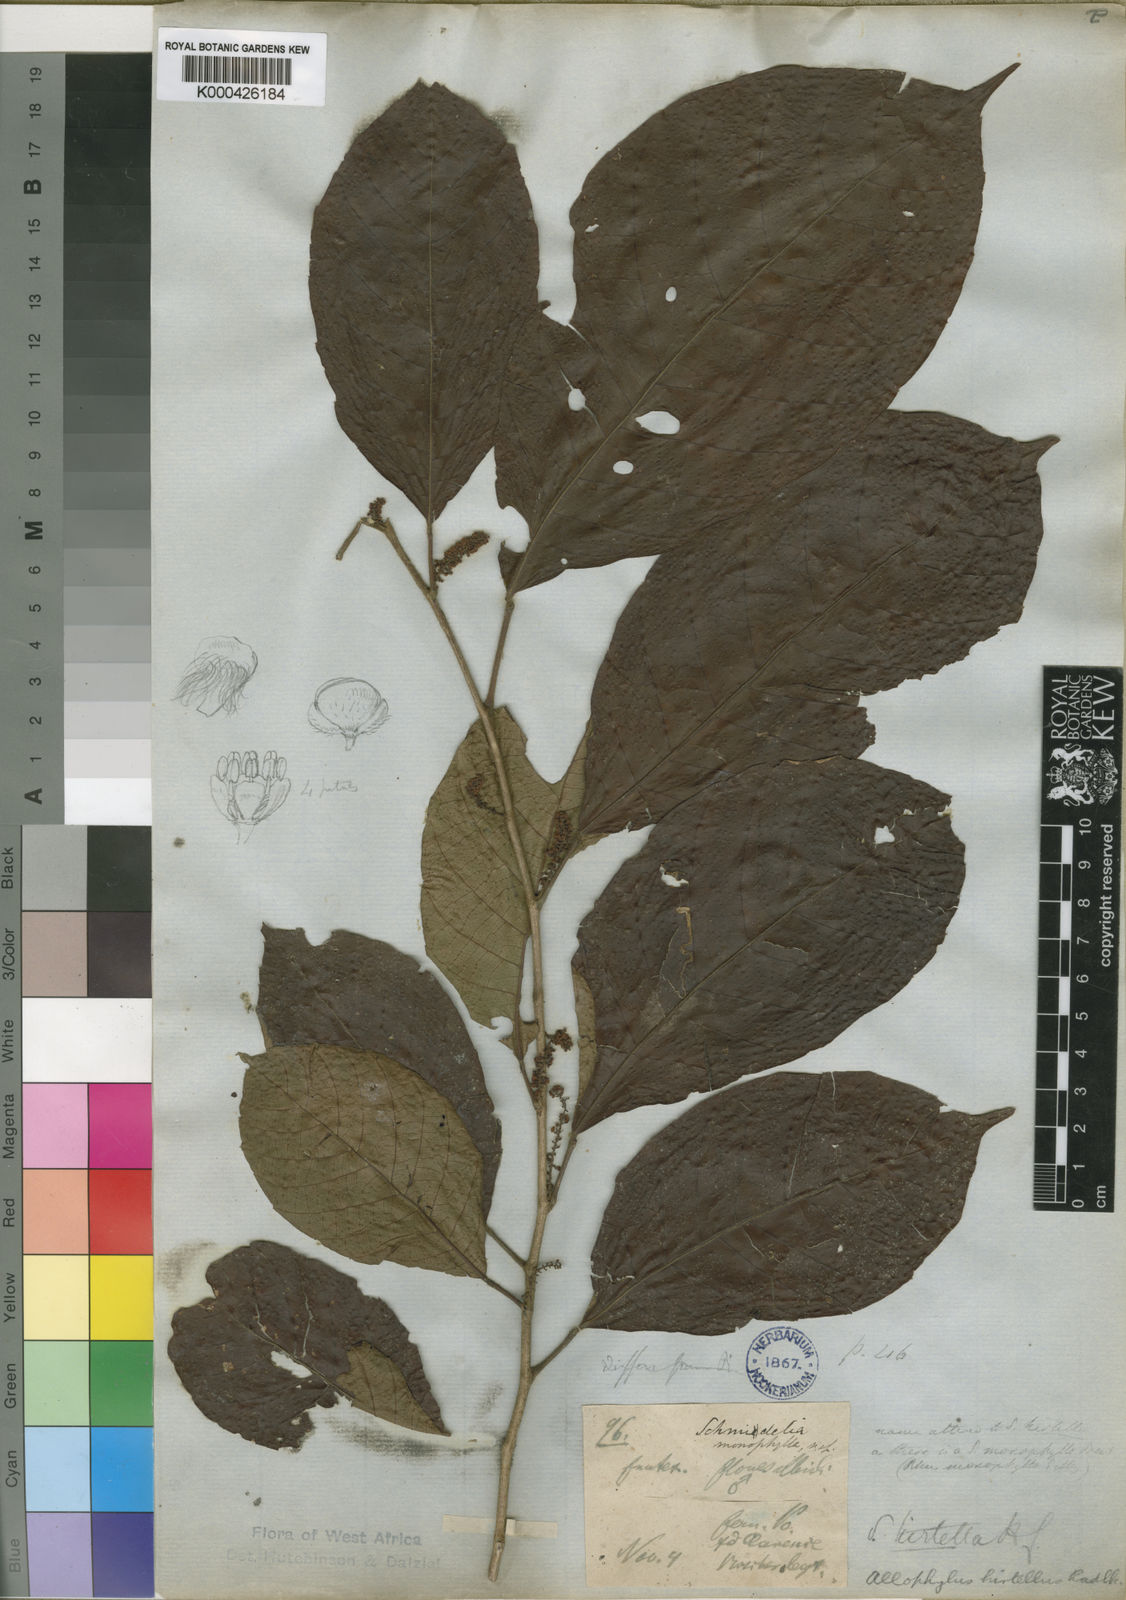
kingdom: Plantae
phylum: Tracheophyta
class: Magnoliopsida
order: Sapindales
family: Sapindaceae
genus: Allophylus
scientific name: Allophylus hirtellus
